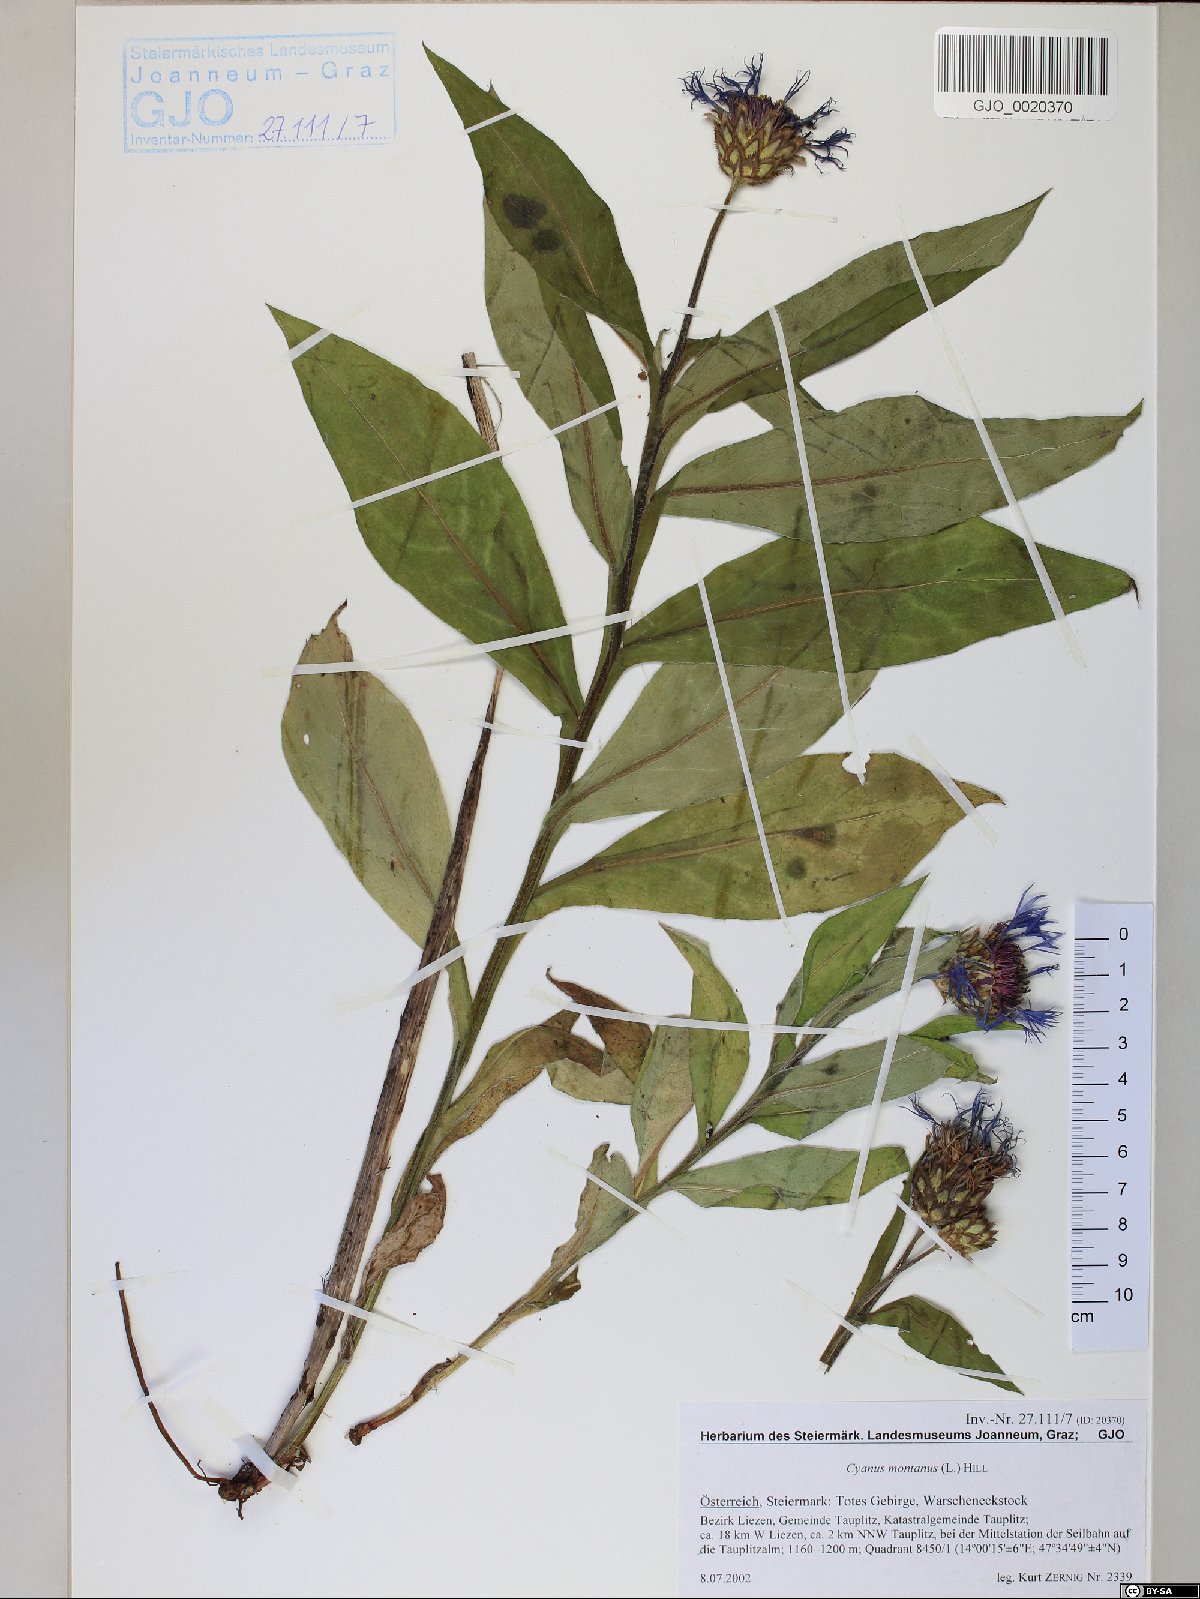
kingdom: Plantae
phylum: Tracheophyta
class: Magnoliopsida
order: Asterales
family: Asteraceae
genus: Centaurea
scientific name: Centaurea montana
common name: Perennial cornflower
